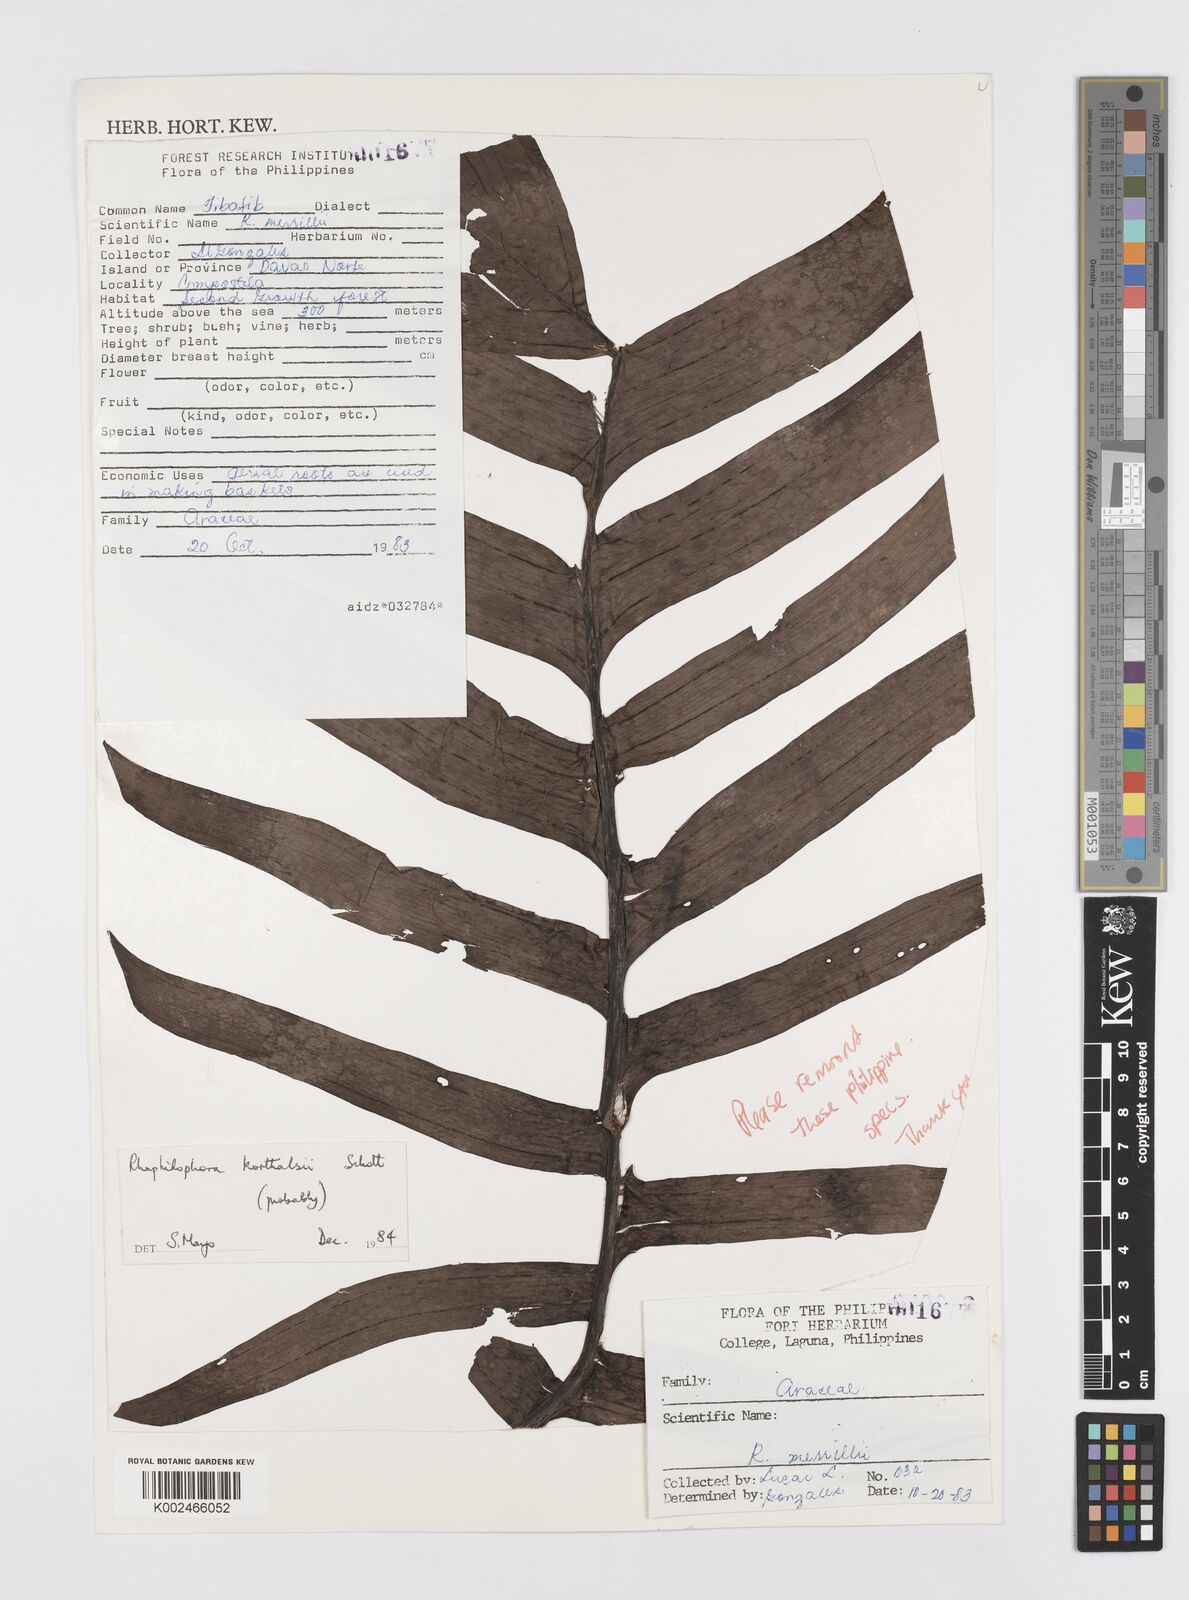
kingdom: Plantae
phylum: Tracheophyta
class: Liliopsida
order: Alismatales
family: Araceae
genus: Rhaphidophora
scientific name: Rhaphidophora korthalsii
